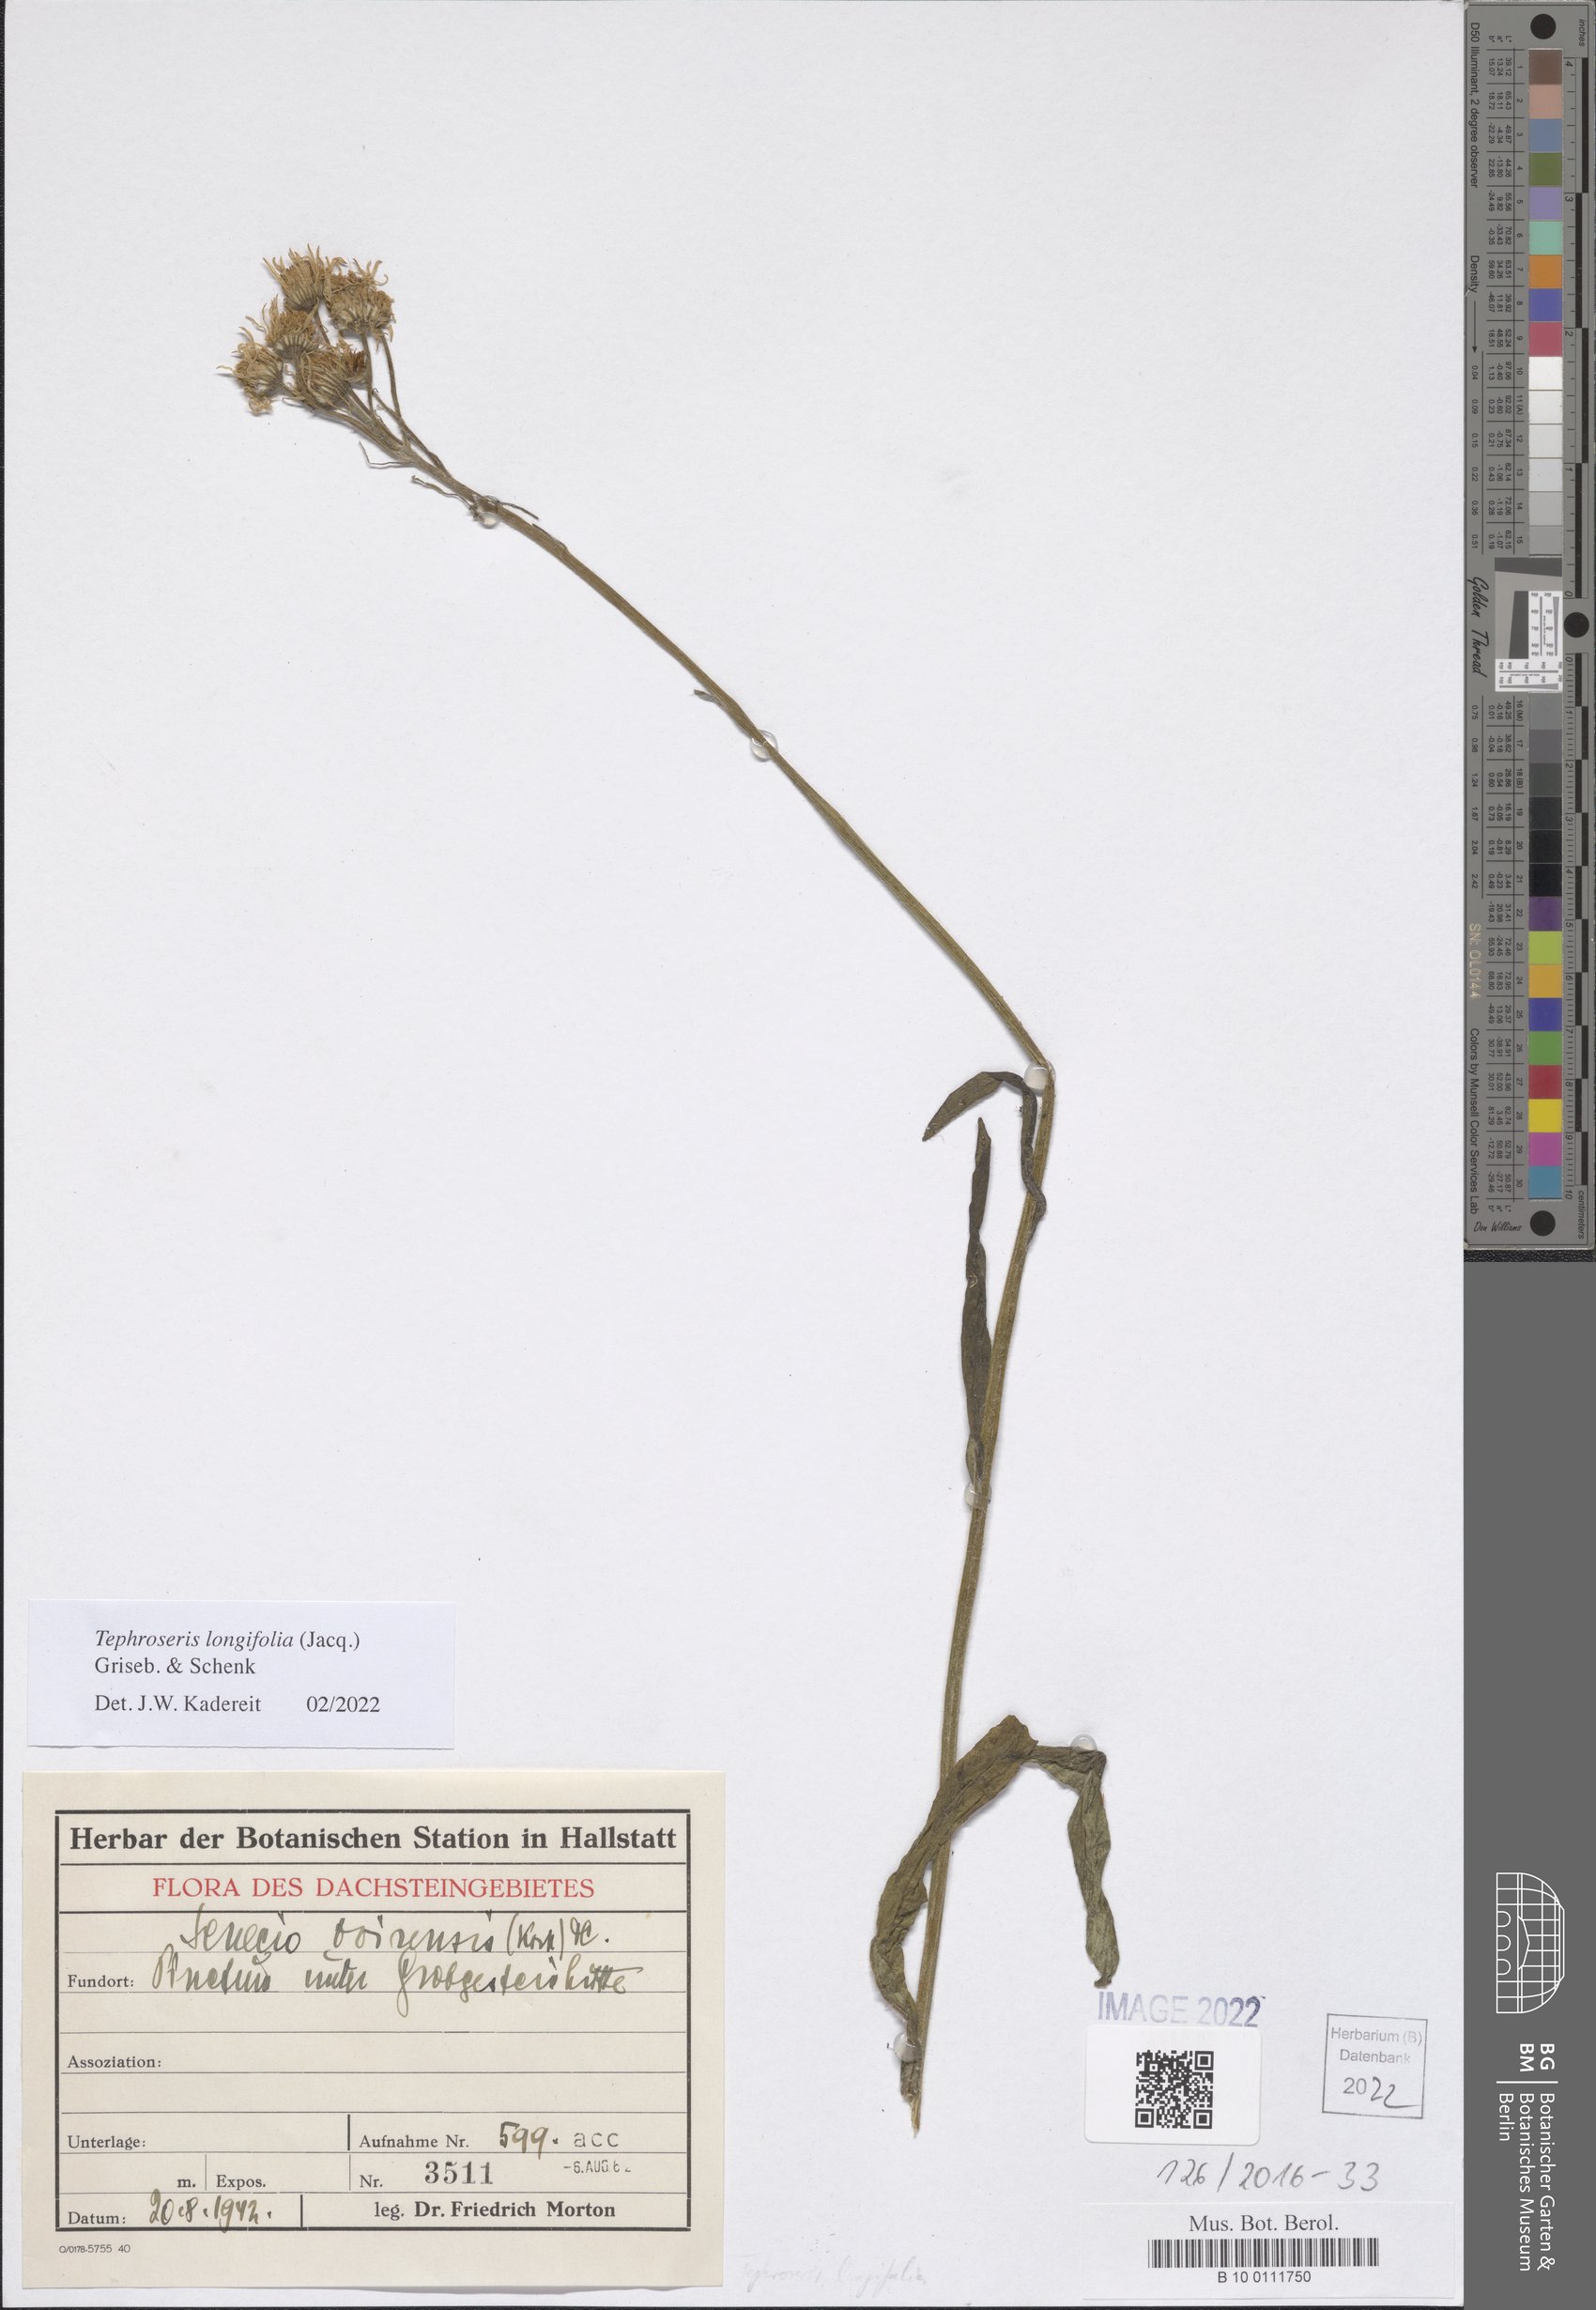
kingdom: Plantae
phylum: Tracheophyta
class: Magnoliopsida
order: Asterales
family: Asteraceae
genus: Tephroseris
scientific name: Tephroseris longifolia
